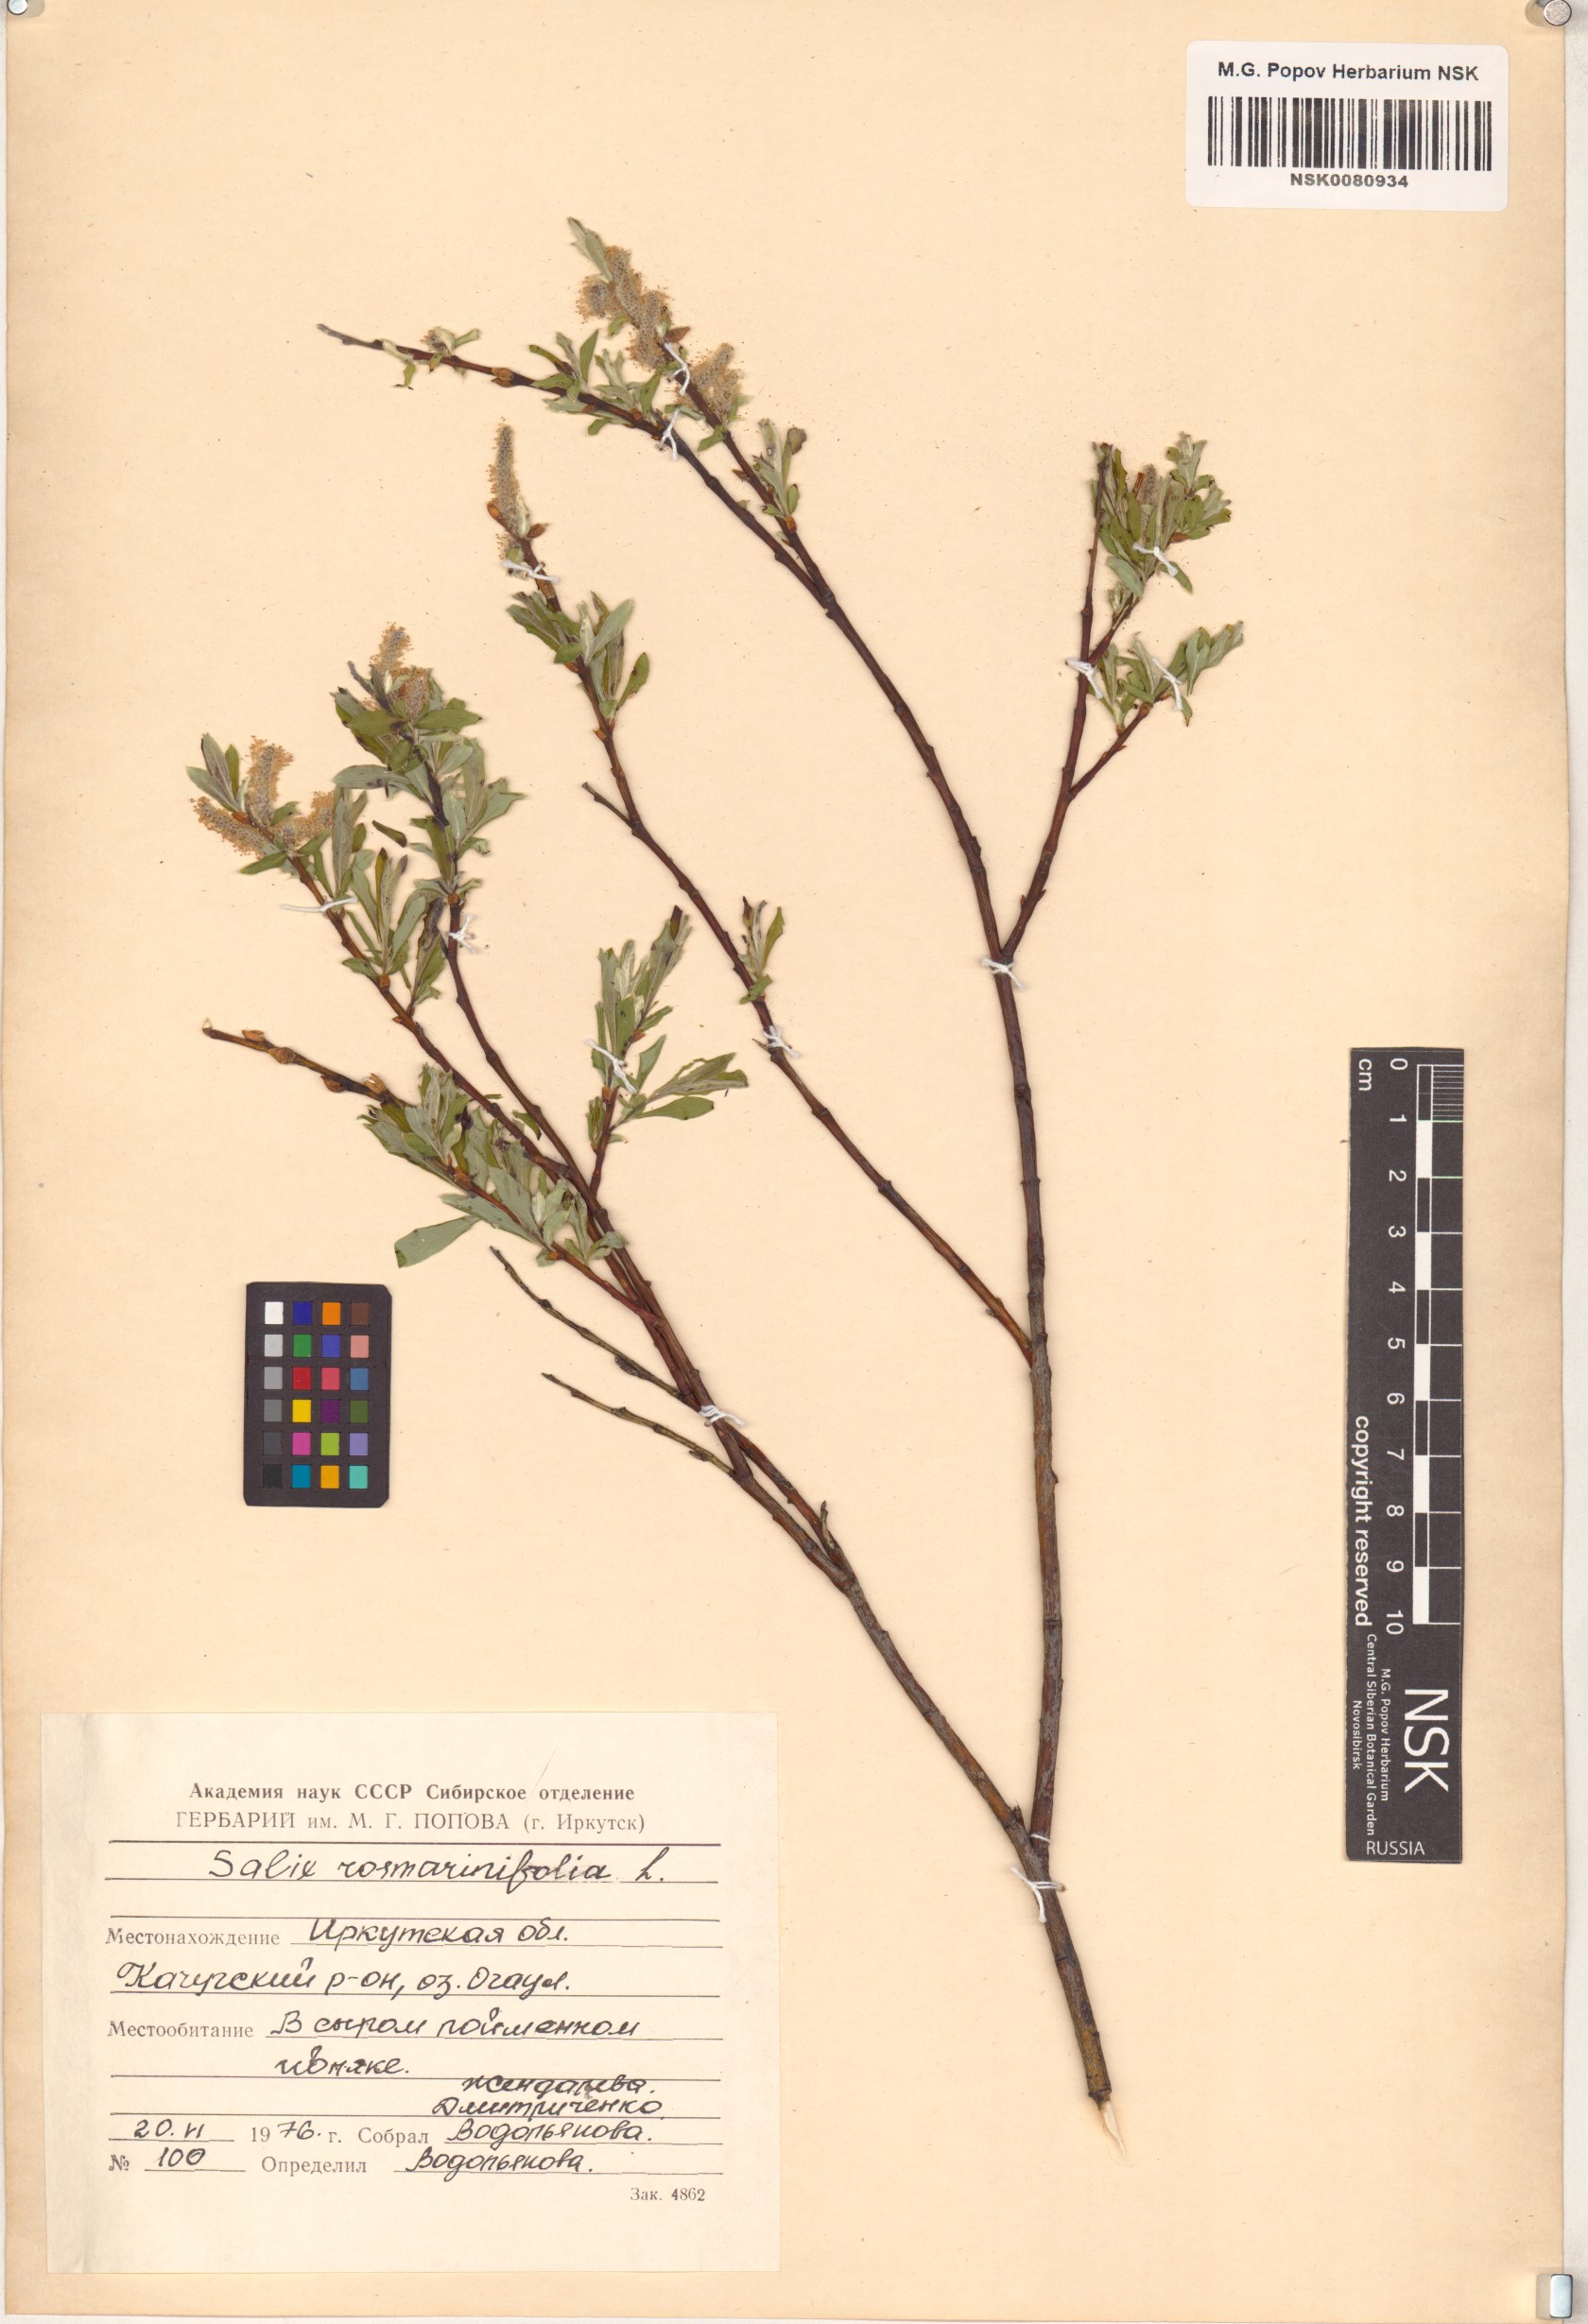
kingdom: Plantae
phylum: Tracheophyta
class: Magnoliopsida
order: Malpighiales
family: Salicaceae
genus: Salix
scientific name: Salix rosmarinifolia
